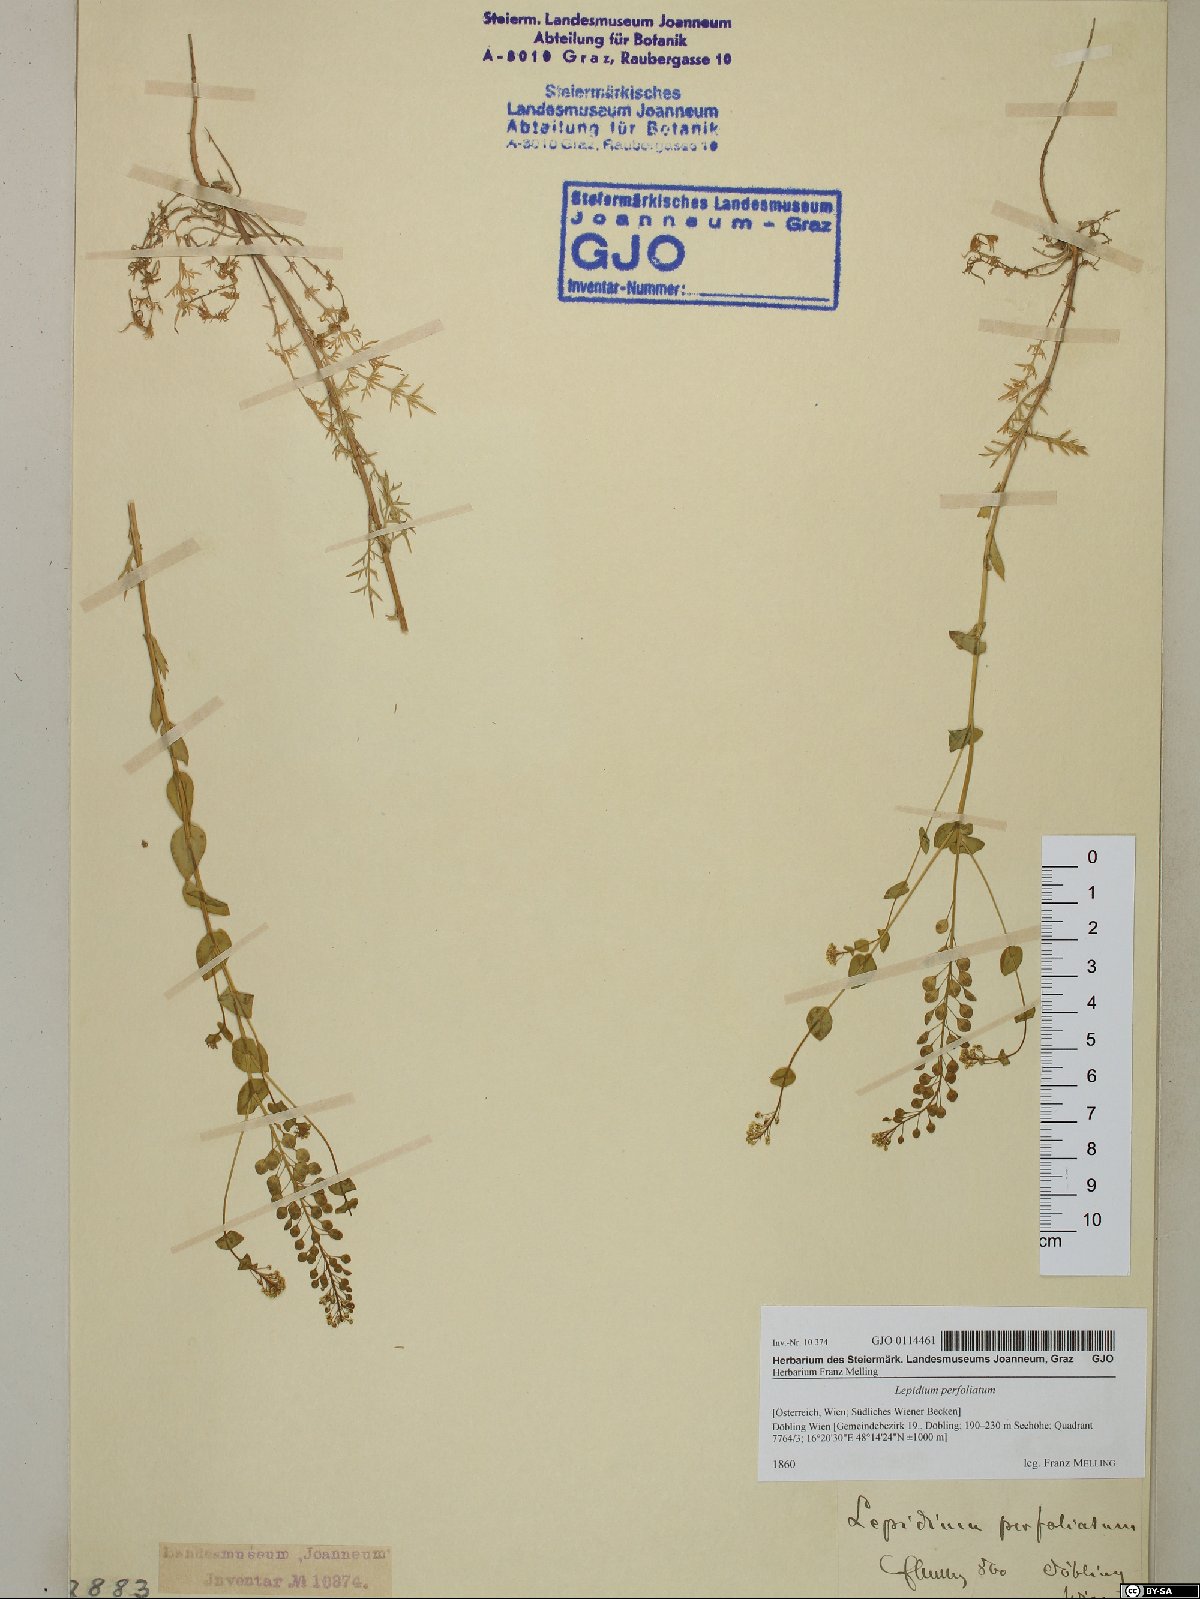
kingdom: Plantae
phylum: Tracheophyta
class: Magnoliopsida
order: Brassicales
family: Brassicaceae
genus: Lepidium
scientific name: Lepidium perfoliatum
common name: Perfoliate pepperwort
